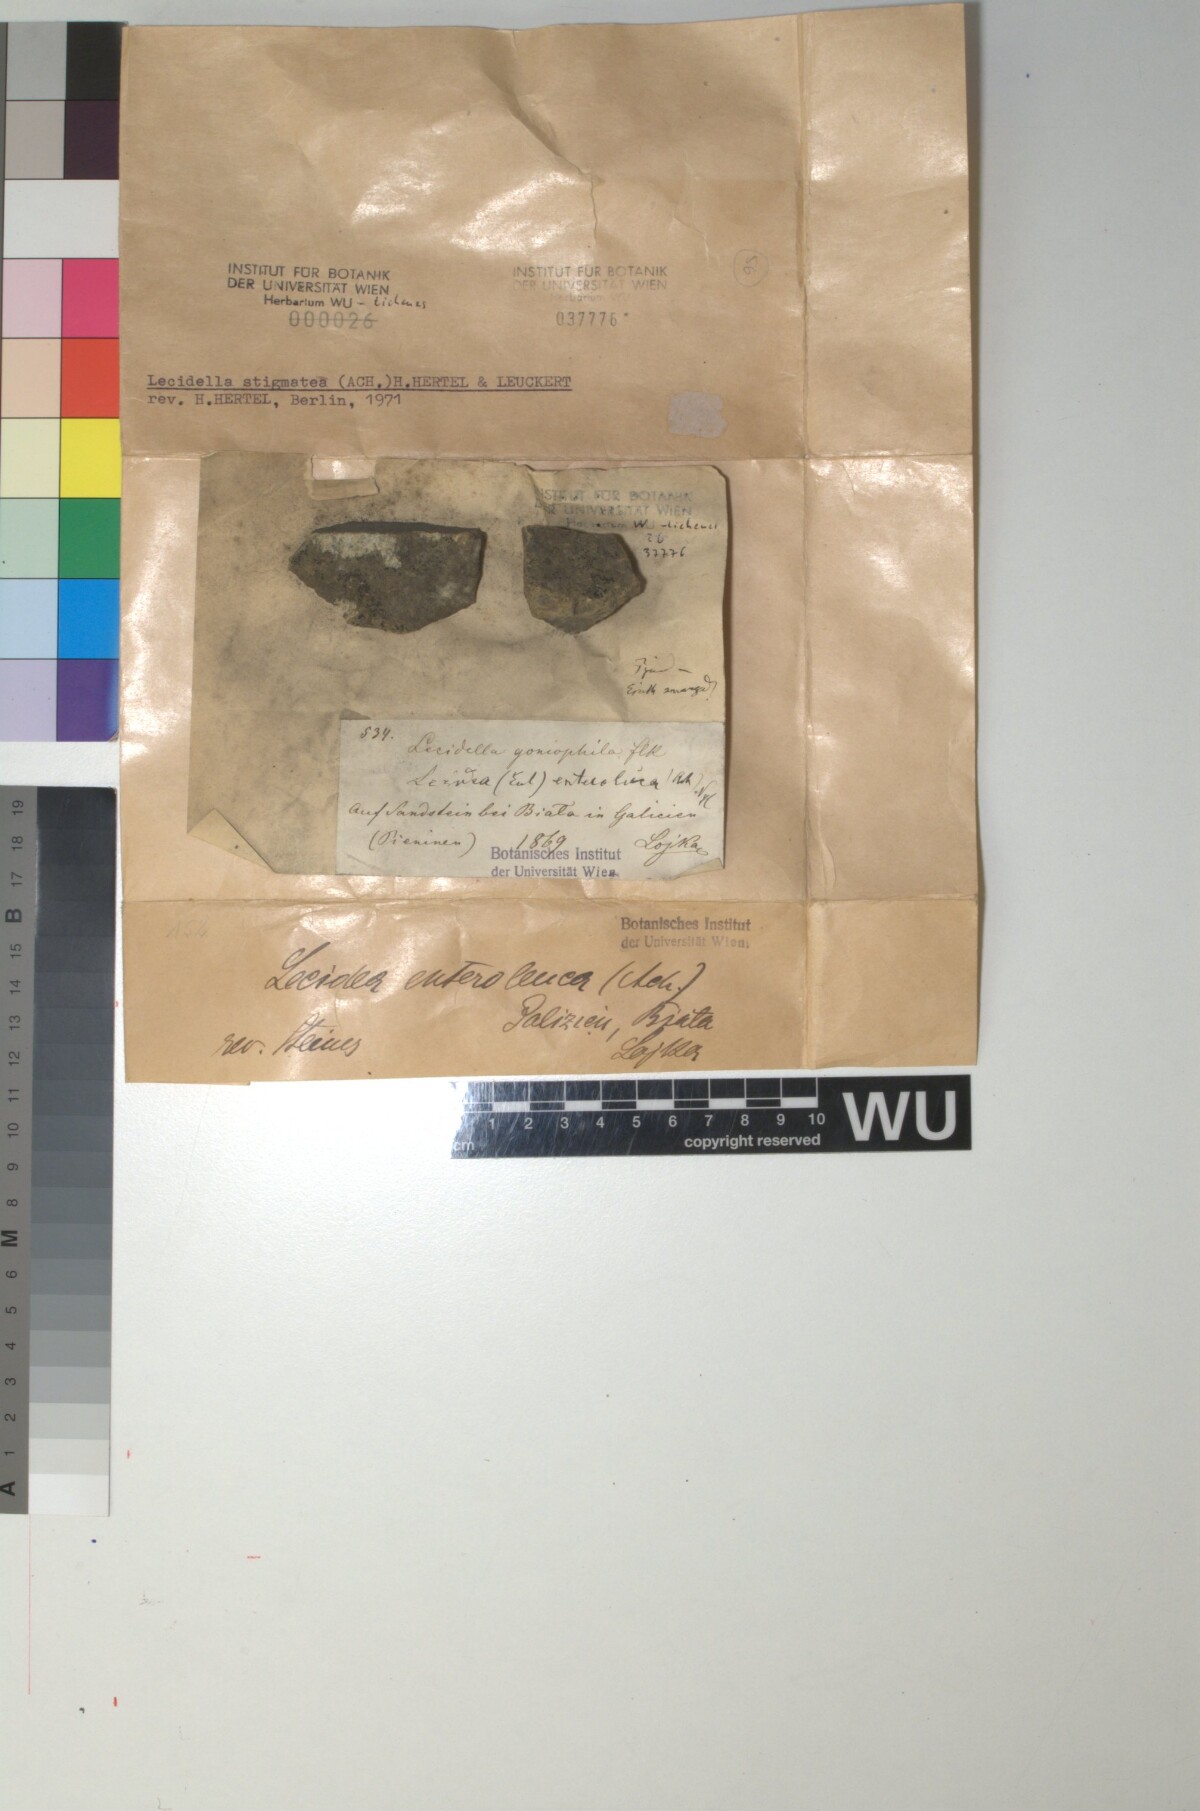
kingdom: Fungi
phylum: Ascomycota
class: Lecanoromycetes
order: Lecanorales
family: Lecanoraceae
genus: Lecidella
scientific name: Lecidella stigmatea
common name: Limestone disc lichen
